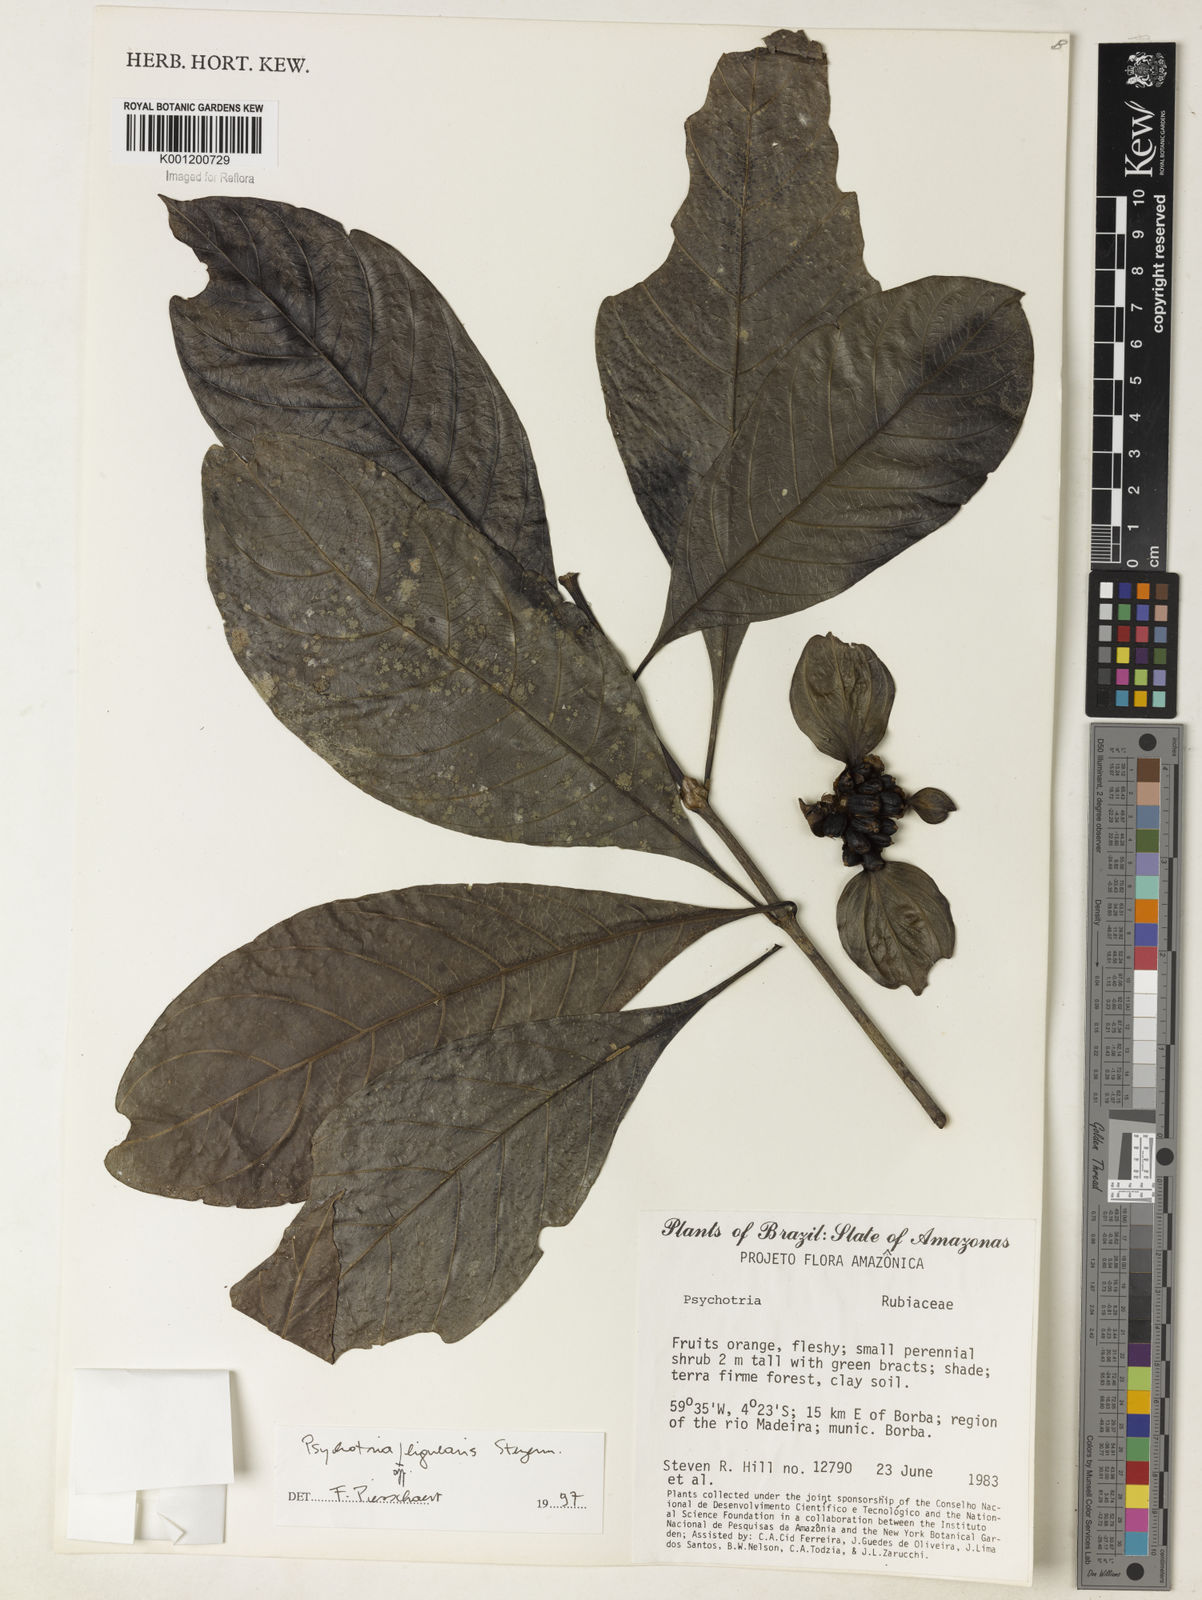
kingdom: Plantae
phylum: Tracheophyta
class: Magnoliopsida
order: Gentianales
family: Rubiaceae
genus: Psychotria
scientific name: Psychotria
